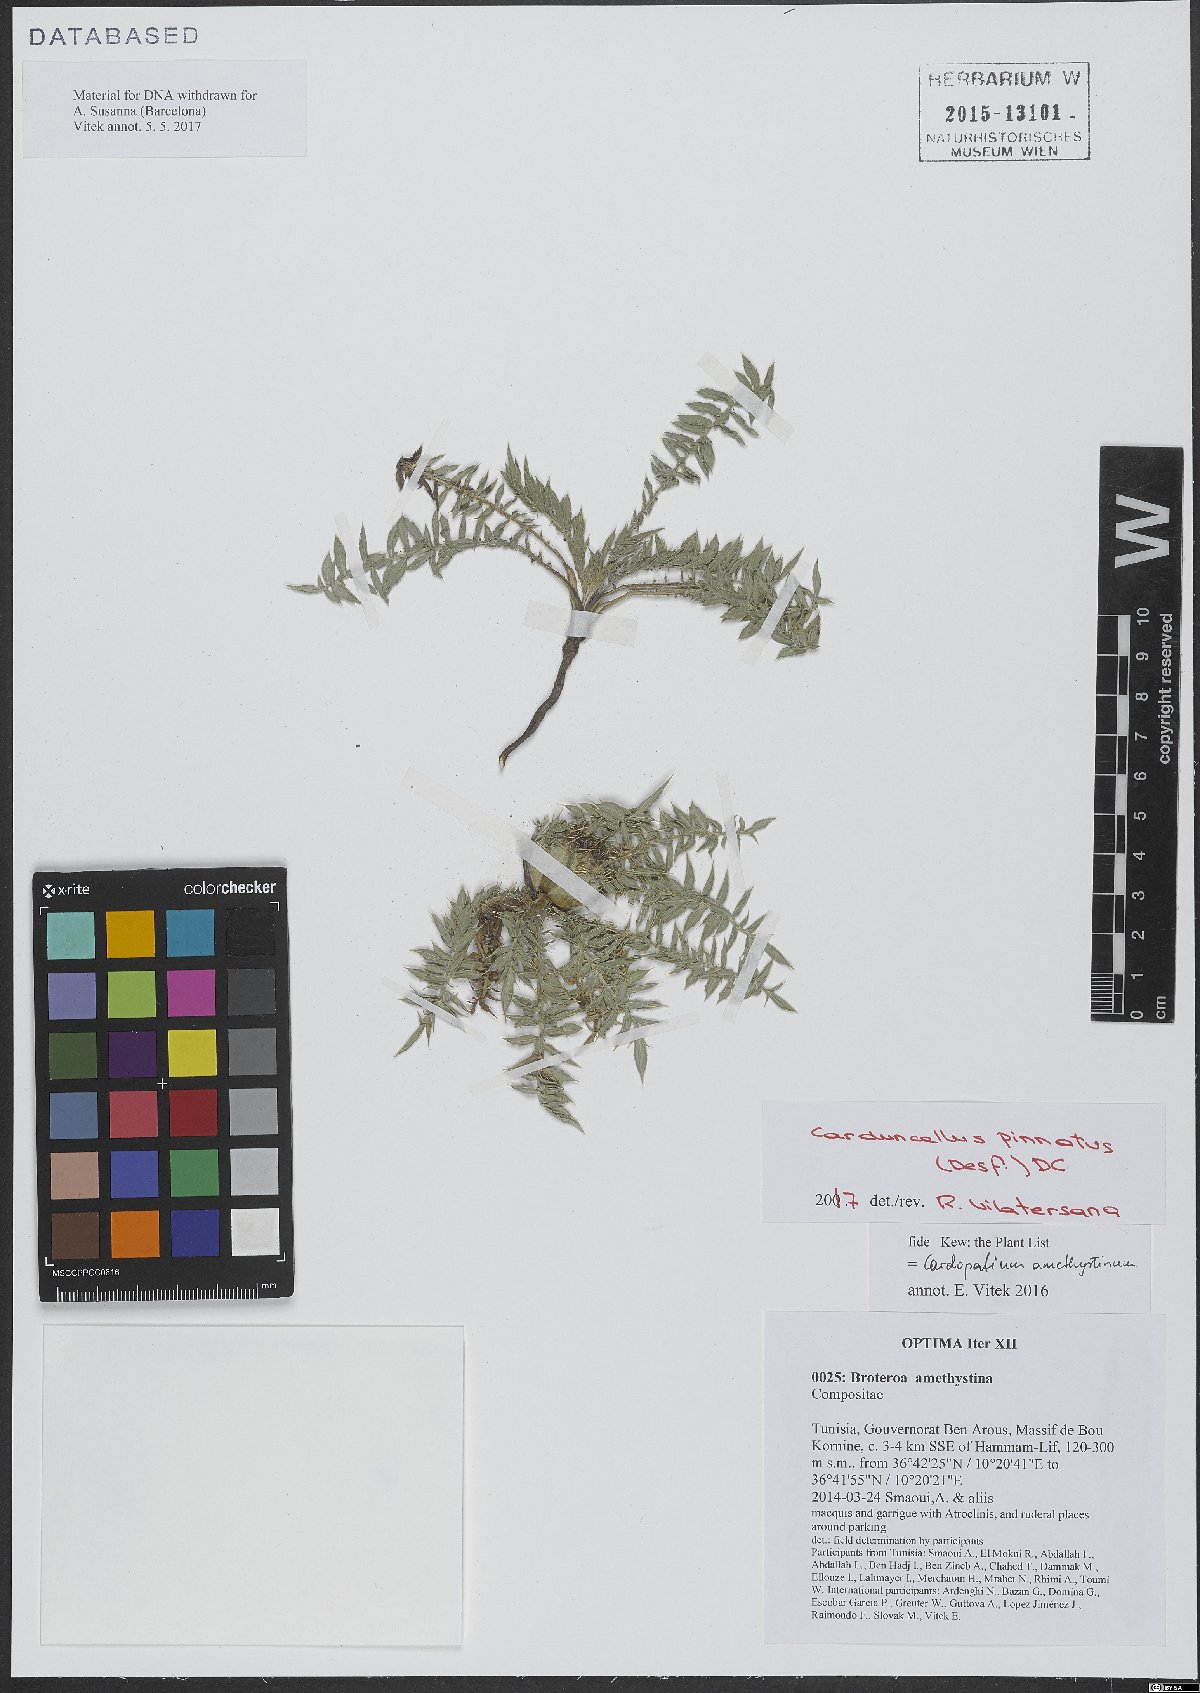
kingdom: Plantae
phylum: Tracheophyta
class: Magnoliopsida
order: Asterales
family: Asteraceae
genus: Carduncellus
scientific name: Carduncellus pinnatus
